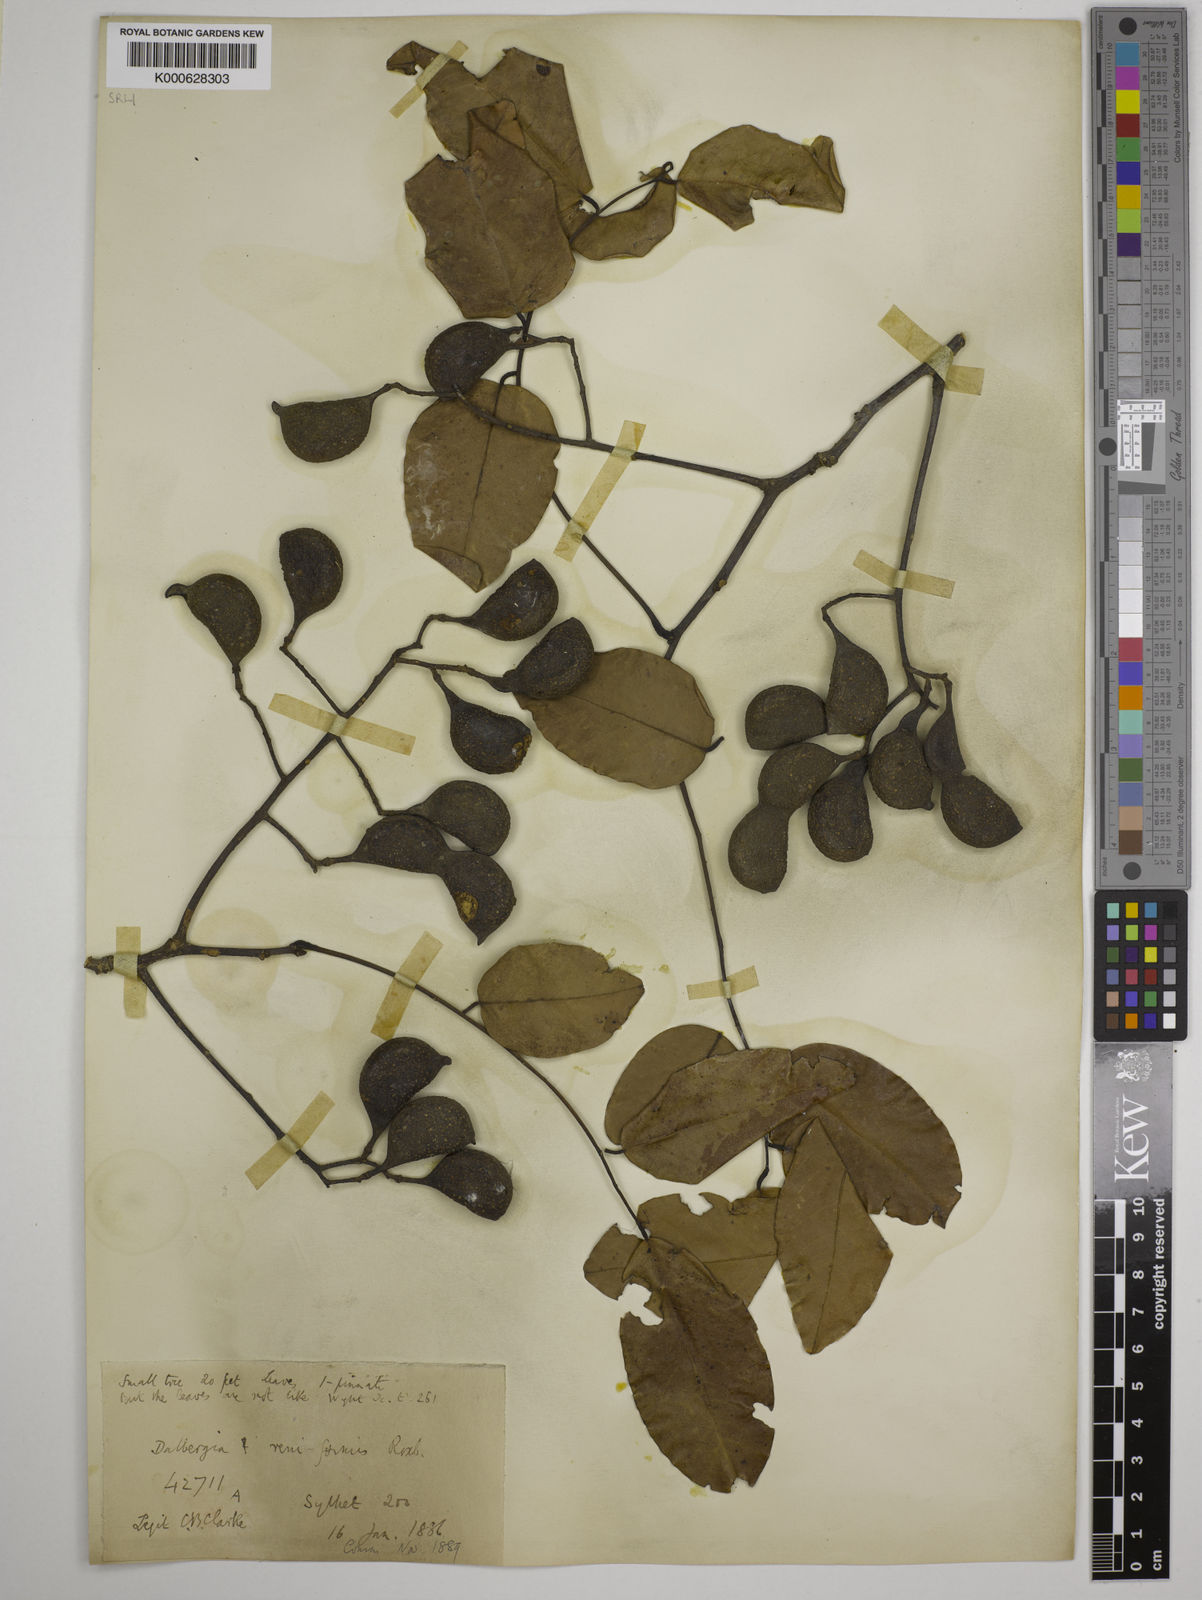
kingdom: Plantae
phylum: Tracheophyta
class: Magnoliopsida
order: Fabales
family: Fabaceae
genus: Dalbergia
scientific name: Dalbergia reniformis
